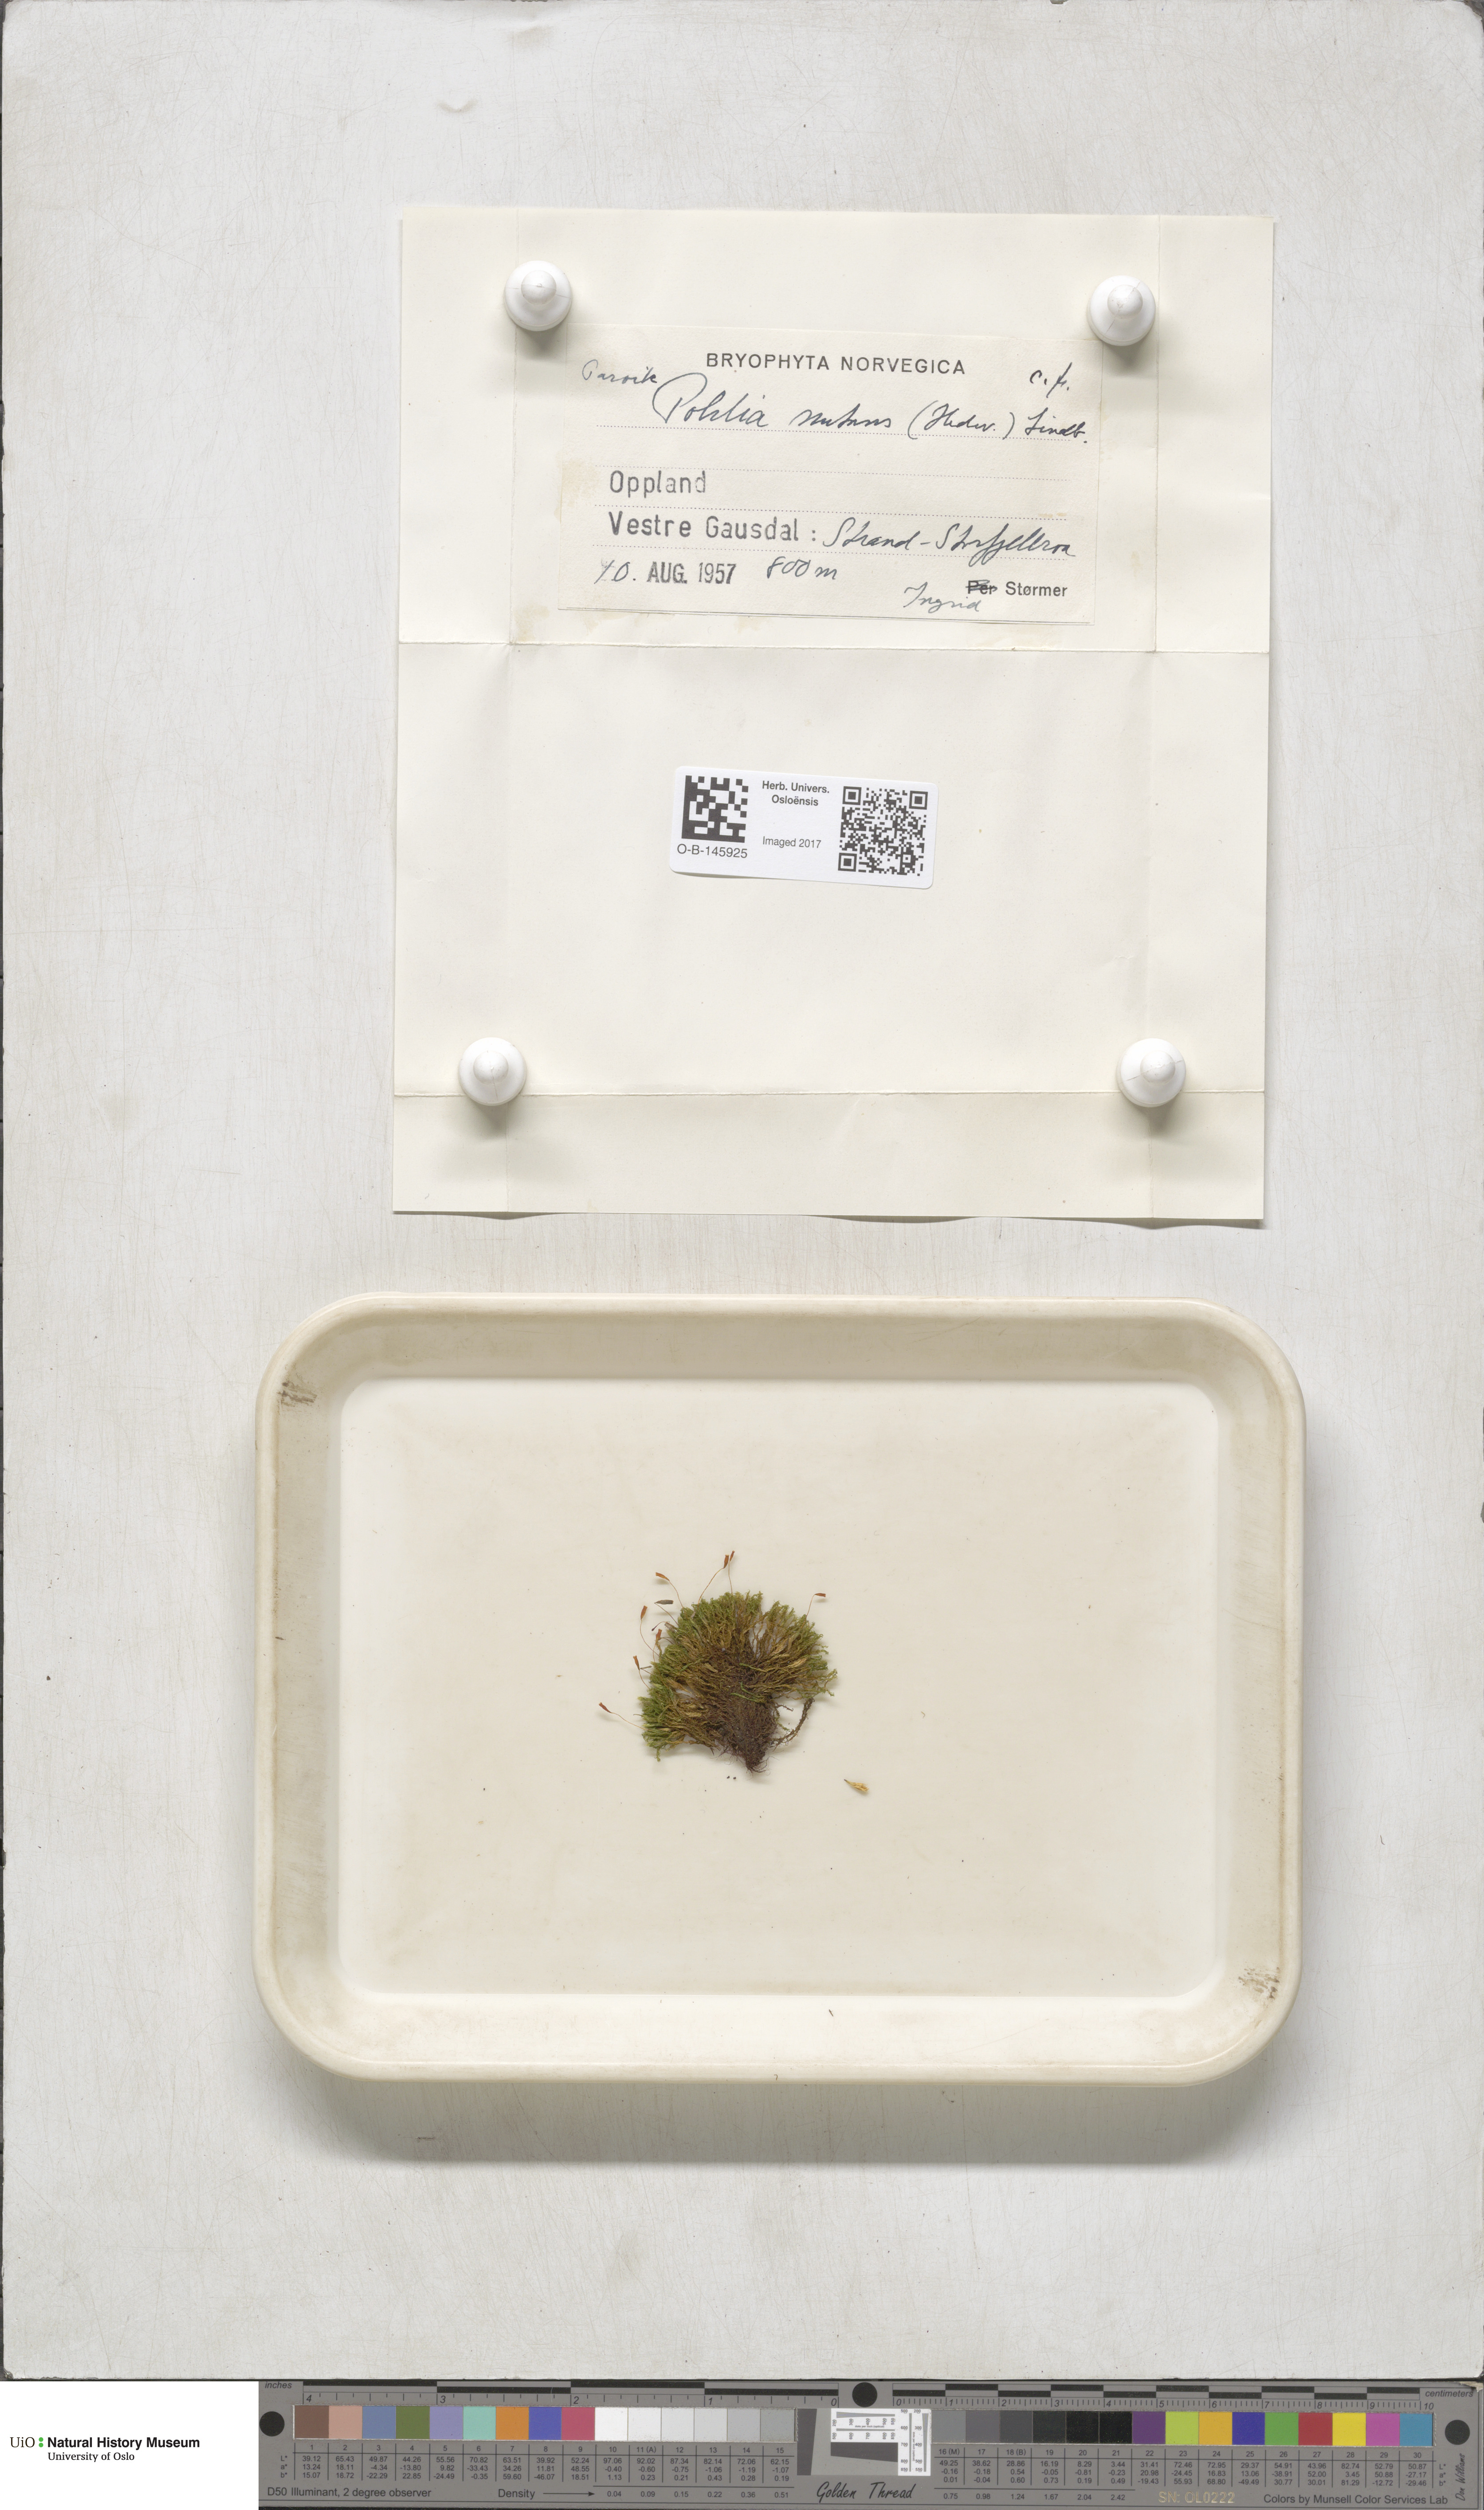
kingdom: Plantae
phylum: Bryophyta
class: Bryopsida
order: Bryales
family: Mniaceae
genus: Pohlia
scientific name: Pohlia nutans
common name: Nodding thread-moss
